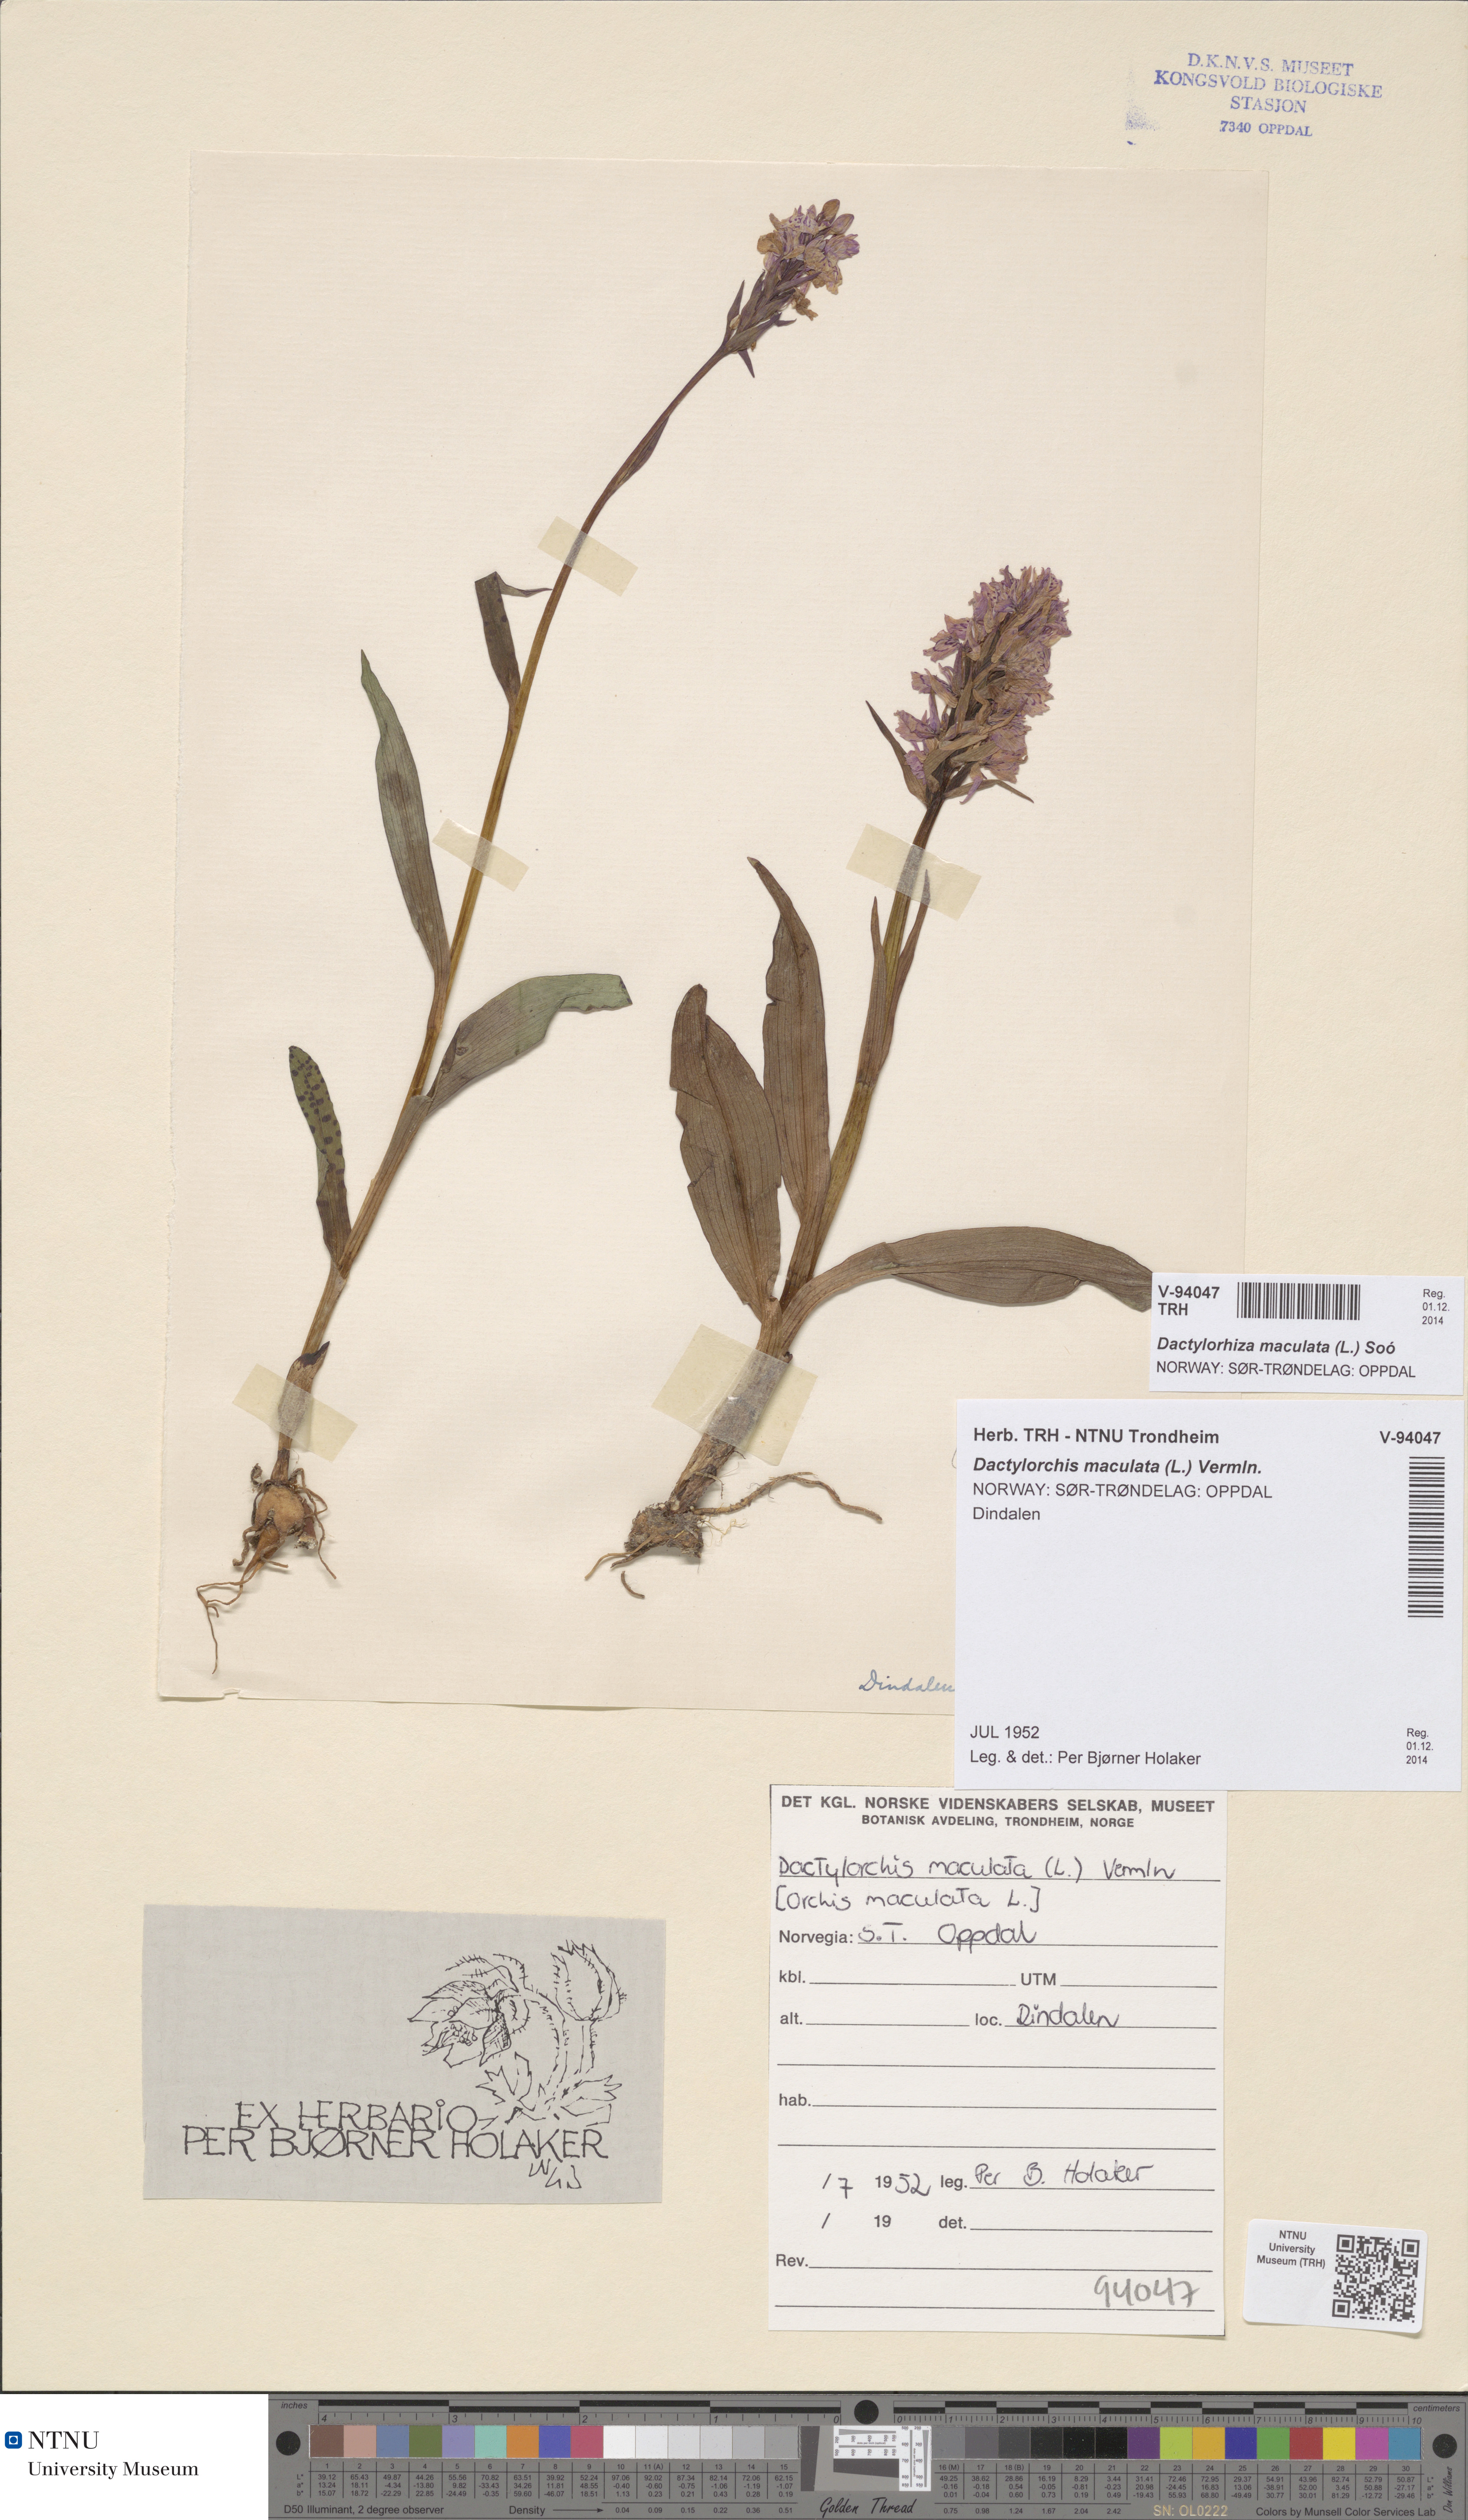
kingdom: Plantae
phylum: Tracheophyta
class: Liliopsida
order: Asparagales
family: Orchidaceae
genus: Dactylorhiza
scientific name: Dactylorhiza maculata
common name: Heath spotted-orchid
